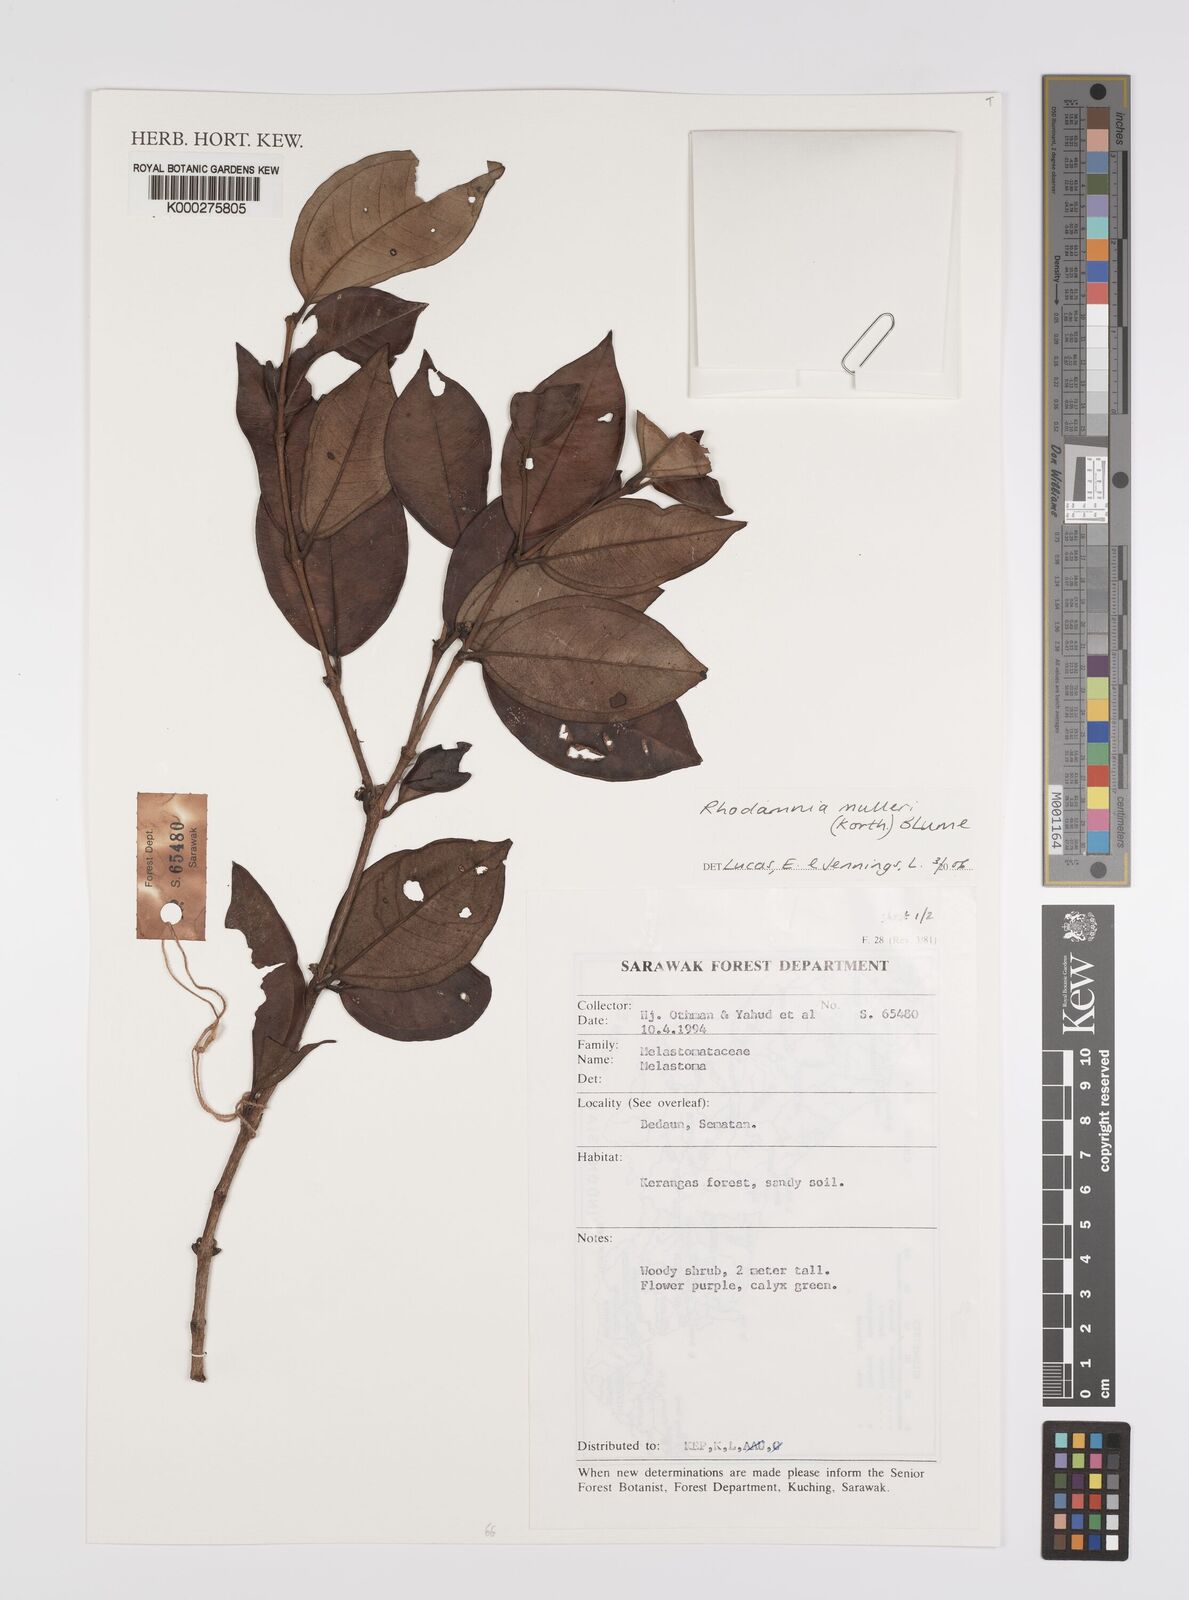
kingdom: Plantae
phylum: Tracheophyta
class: Magnoliopsida
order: Myrtales
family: Myrtaceae
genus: Rhodamnia
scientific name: Rhodamnia mulleri
